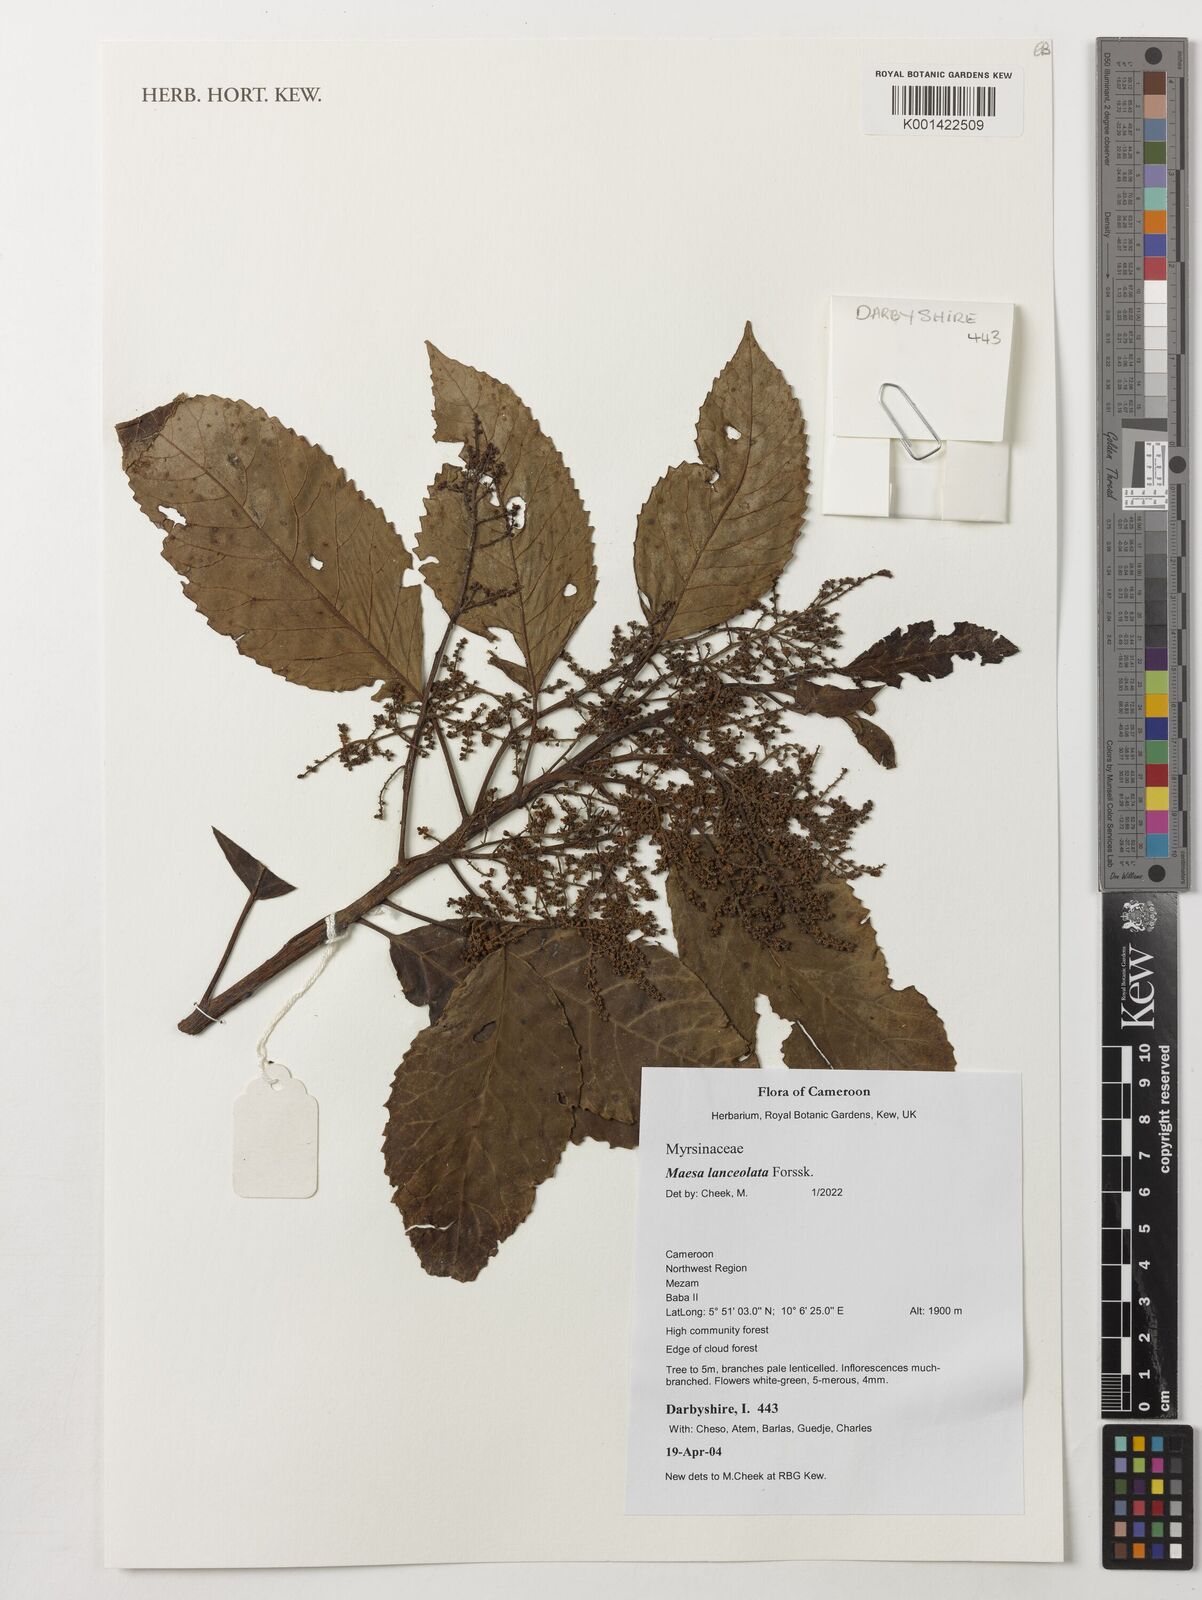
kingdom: Plantae
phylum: Tracheophyta
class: Magnoliopsida
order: Ericales
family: Primulaceae
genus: Maesa
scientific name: Maesa lanceolata
